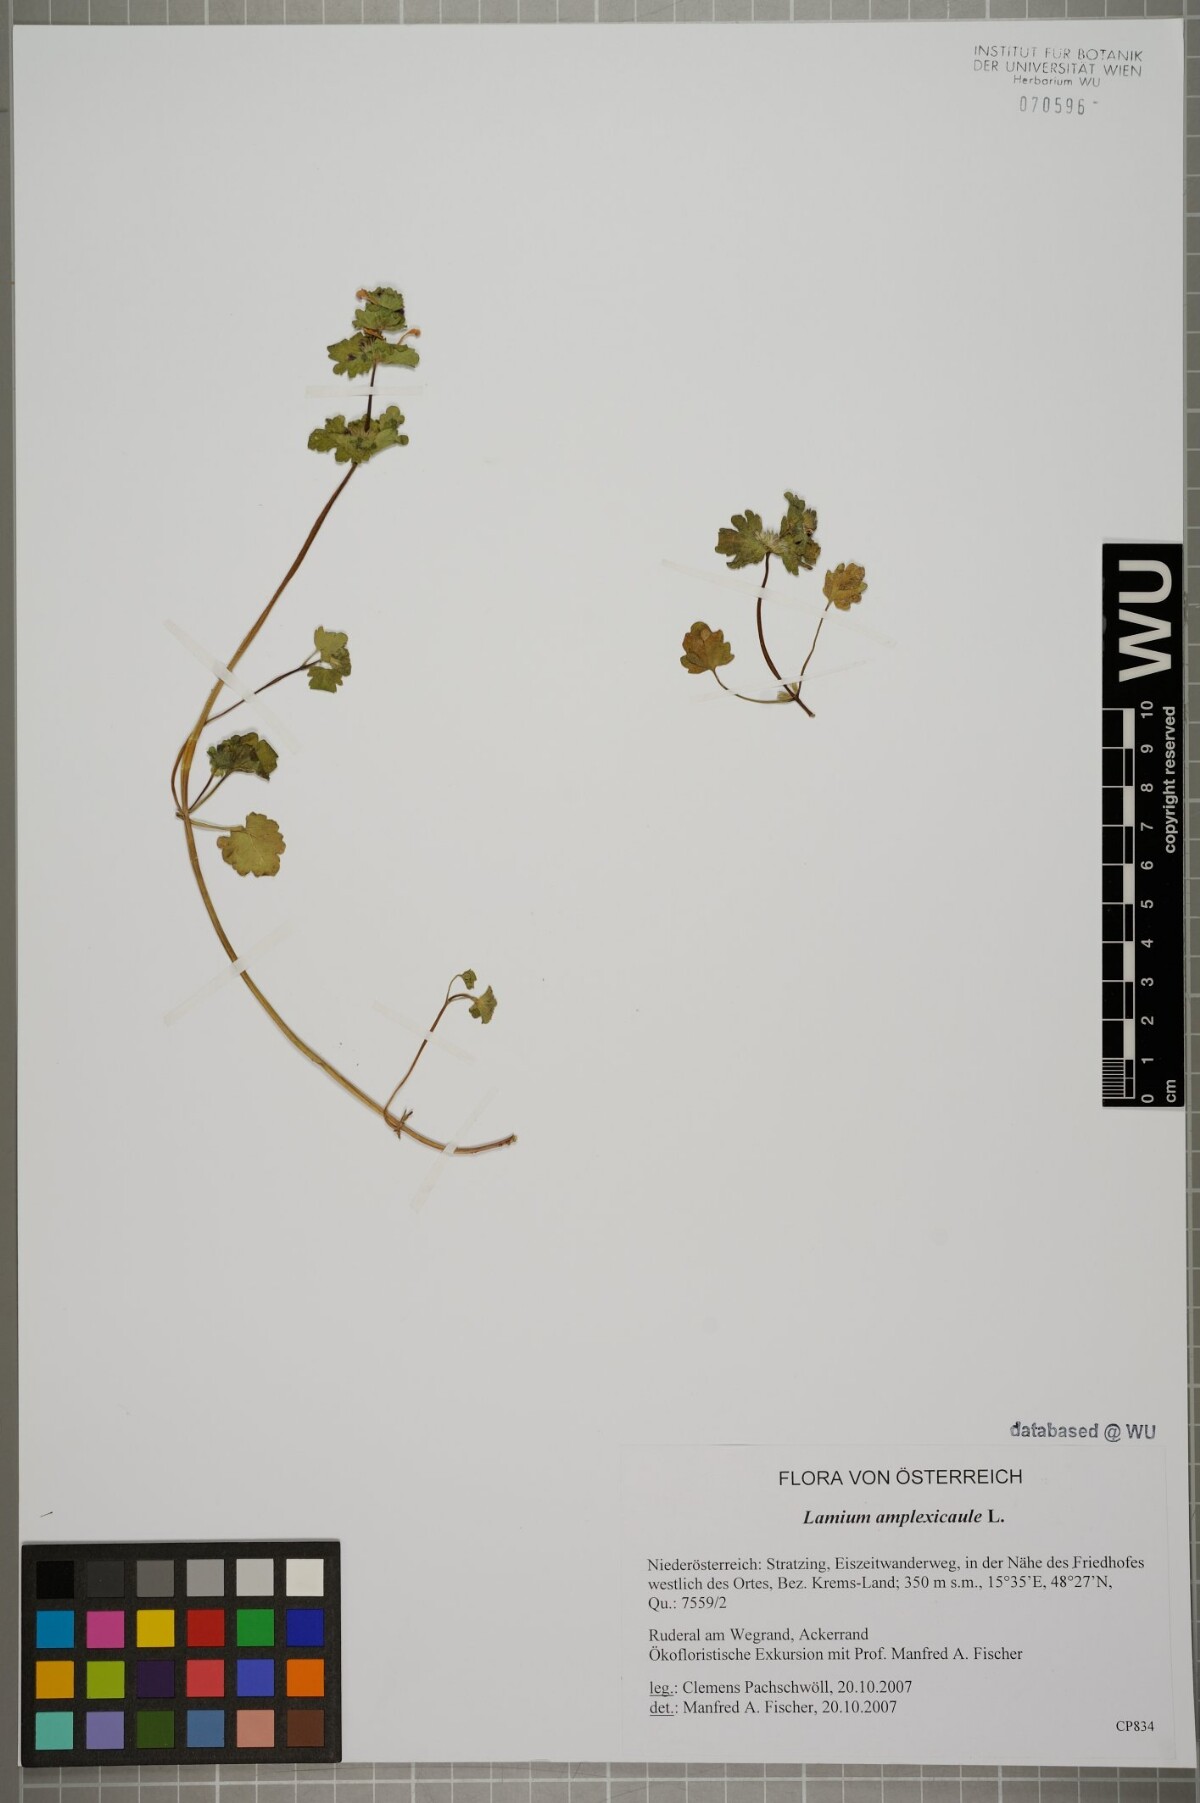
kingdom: Plantae
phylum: Tracheophyta
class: Magnoliopsida
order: Lamiales
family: Lamiaceae
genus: Lamium
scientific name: Lamium amplexicaule
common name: Henbit dead-nettle
